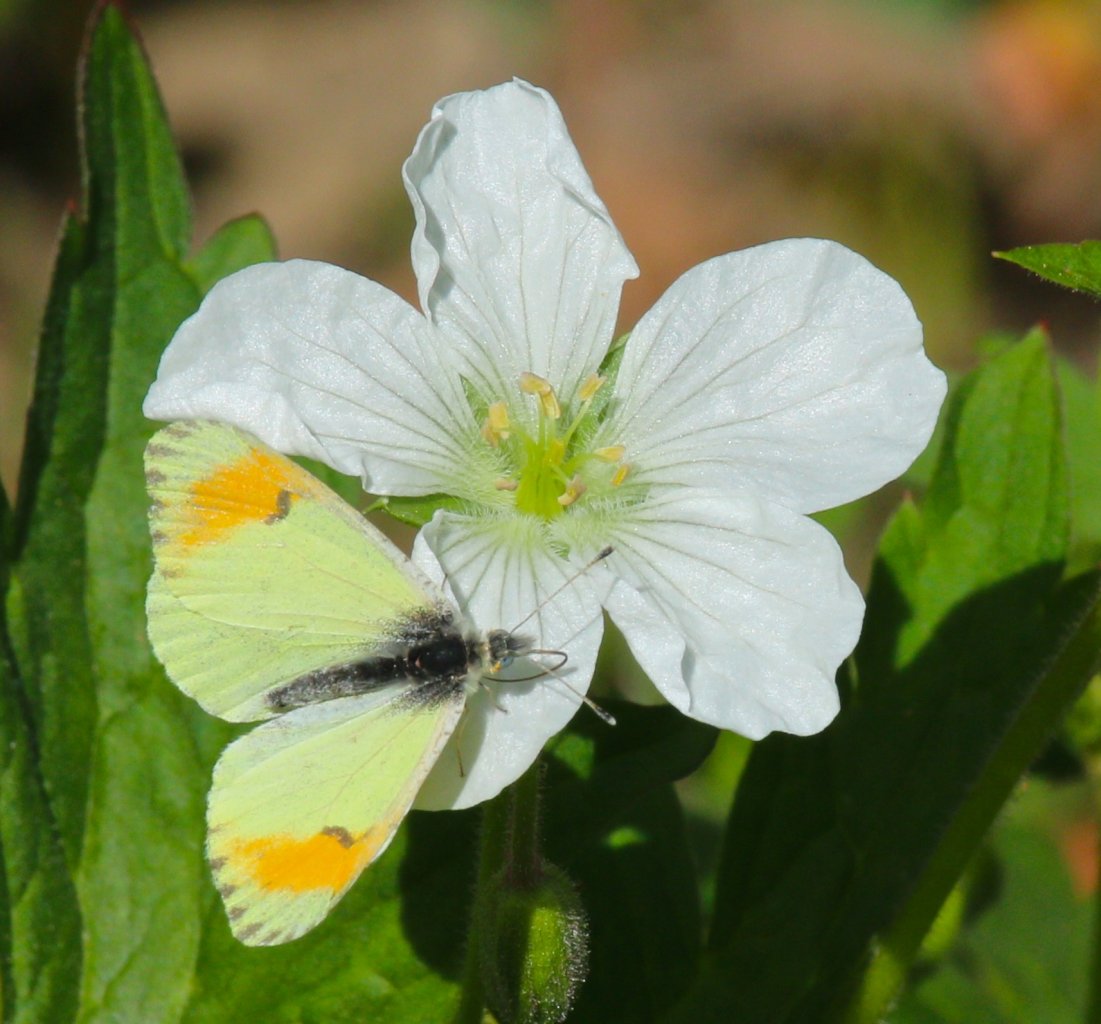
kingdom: Animalia
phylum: Arthropoda
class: Insecta
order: Lepidoptera
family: Pieridae
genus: Anthocharis
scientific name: Anthocharis sara
